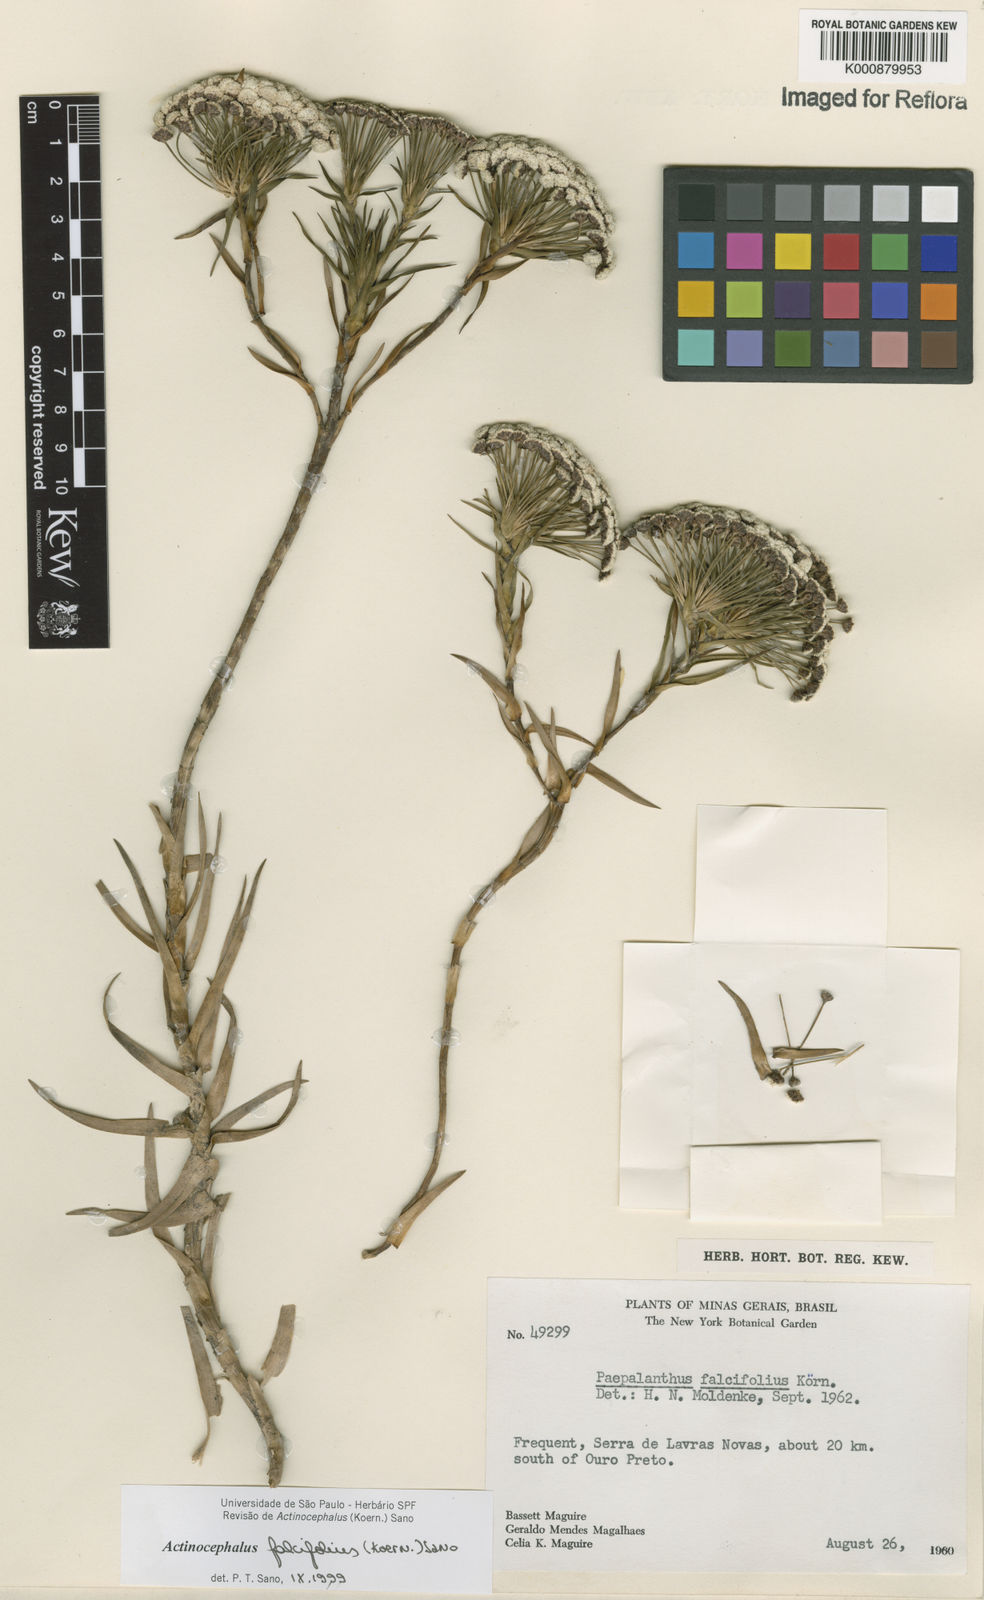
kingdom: Plantae
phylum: Tracheophyta
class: Liliopsida
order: Poales
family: Eriocaulaceae
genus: Paepalanthus
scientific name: Paepalanthus
